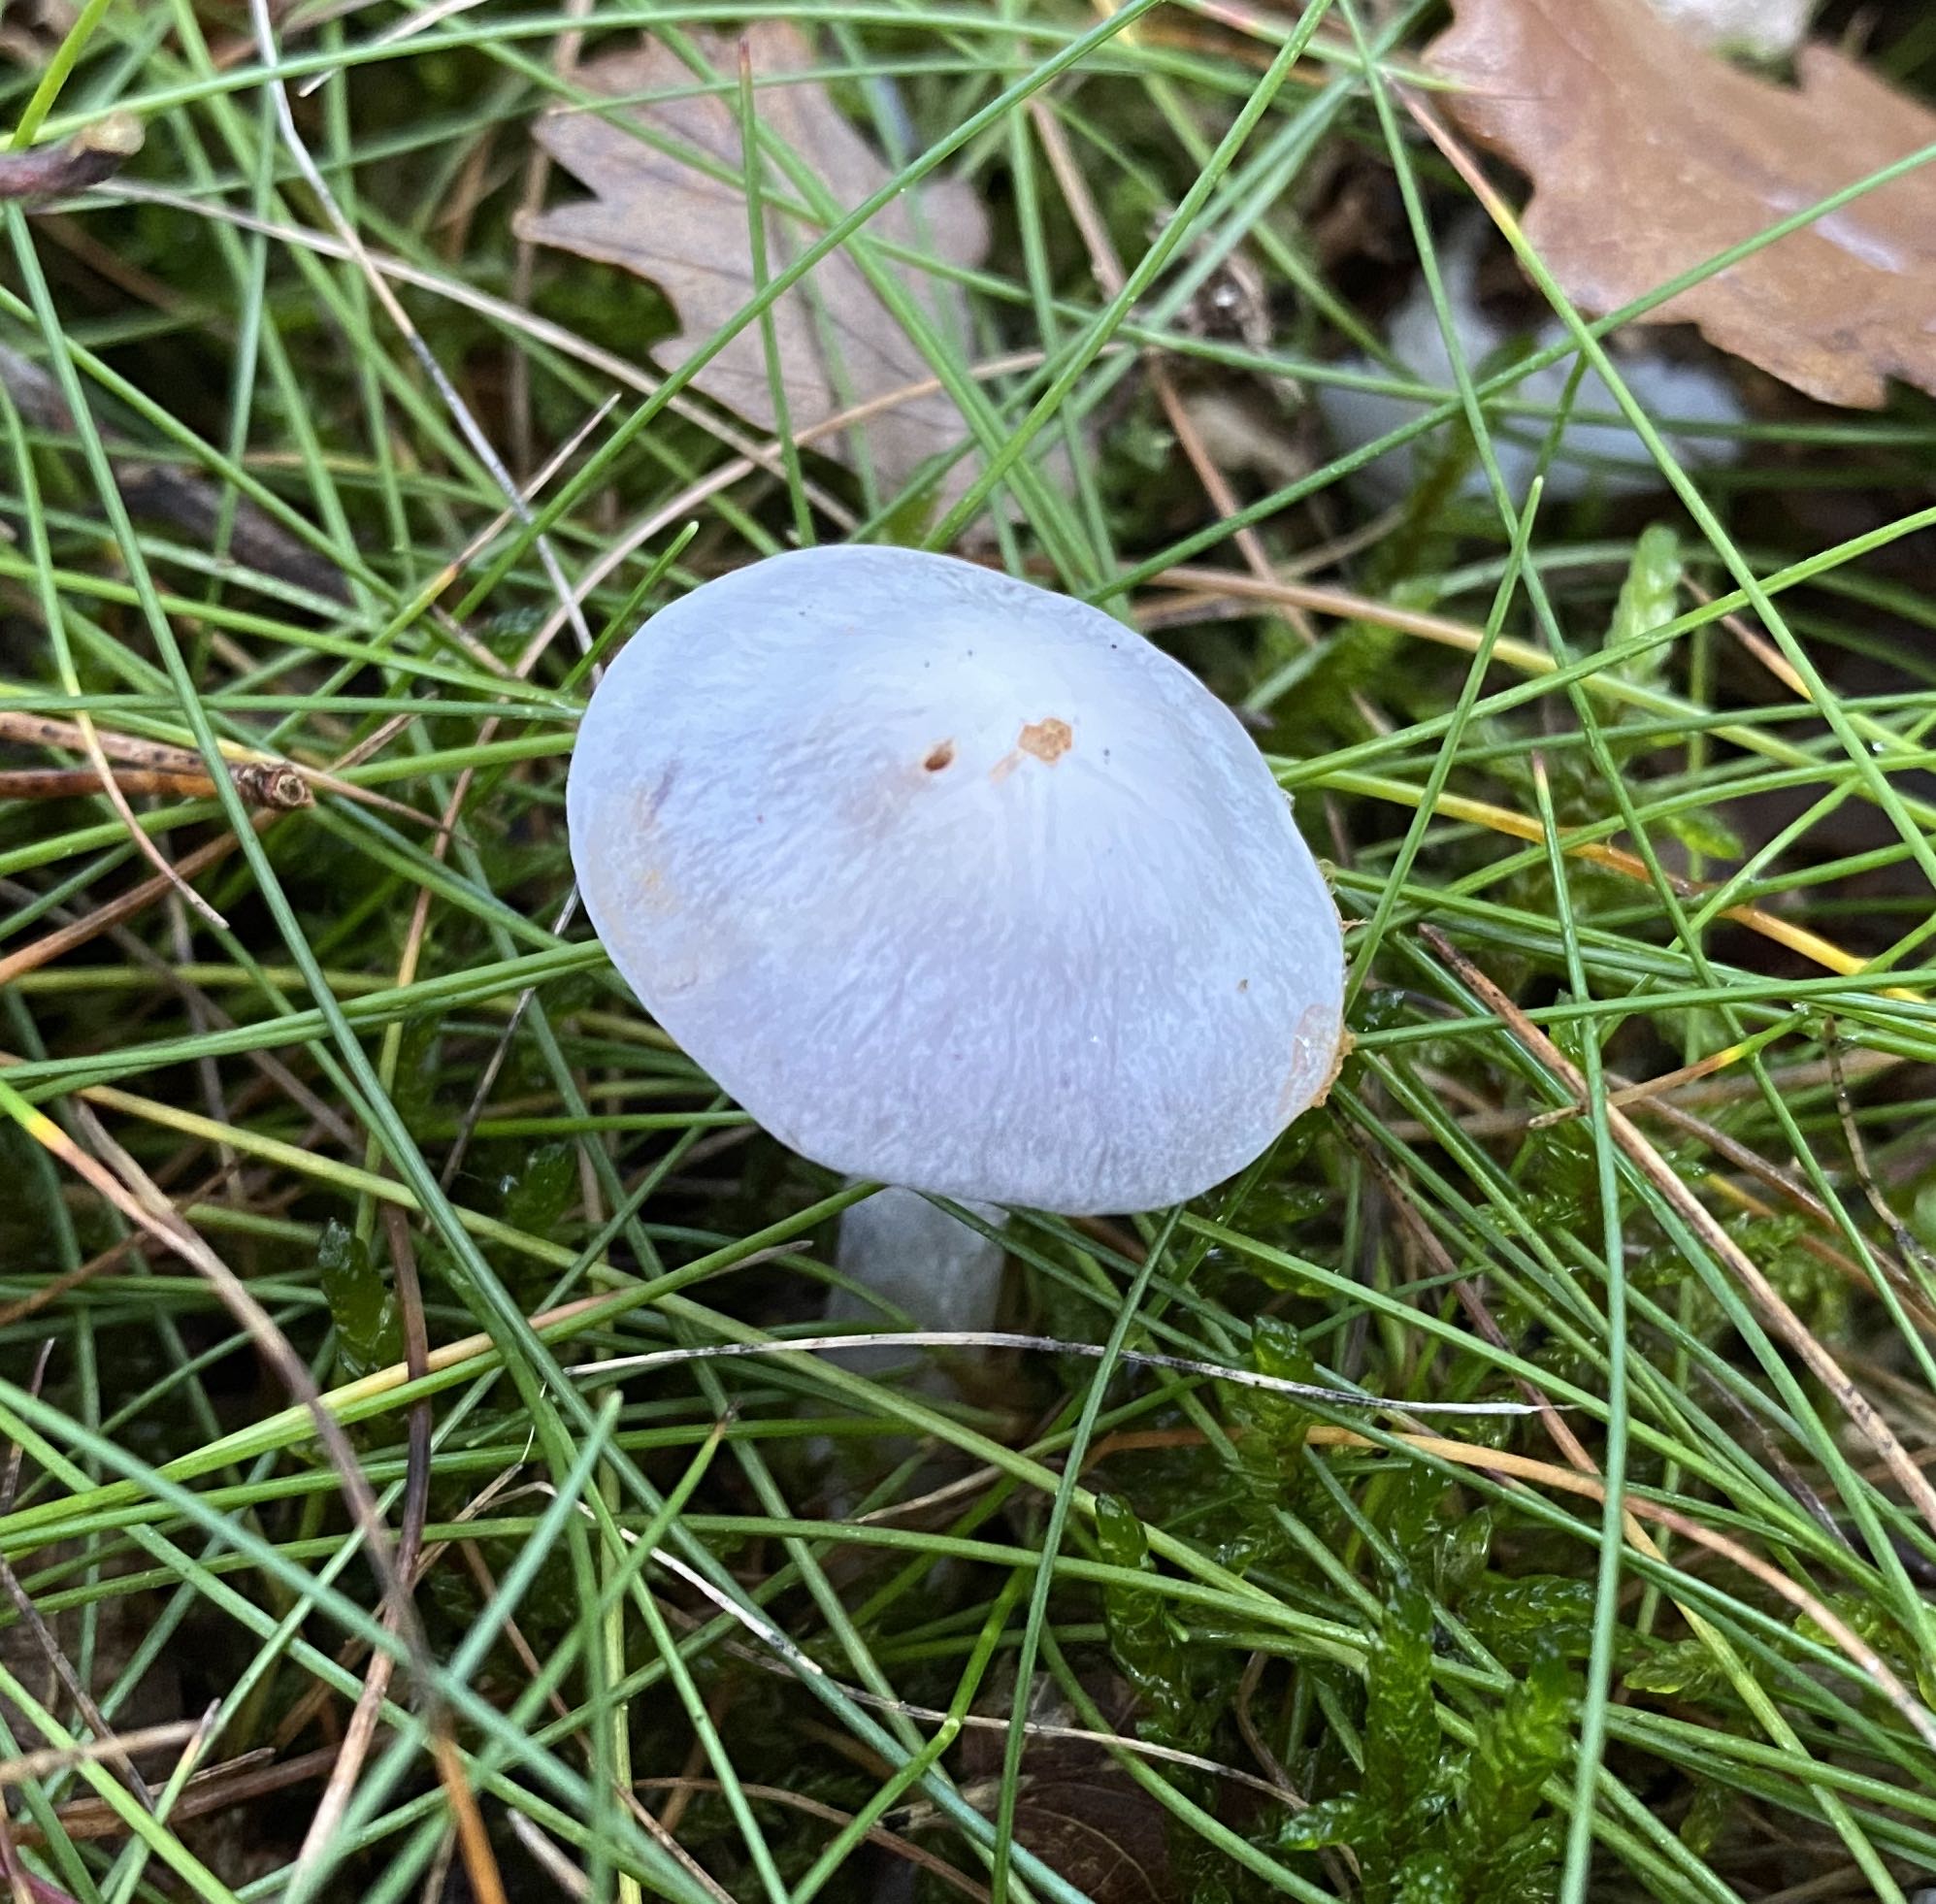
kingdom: Fungi
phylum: Basidiomycota
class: Agaricomycetes
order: Agaricales
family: Cortinariaceae
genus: Cortinarius
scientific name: Cortinarius alboviolaceus
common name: lysviolet slørhat
